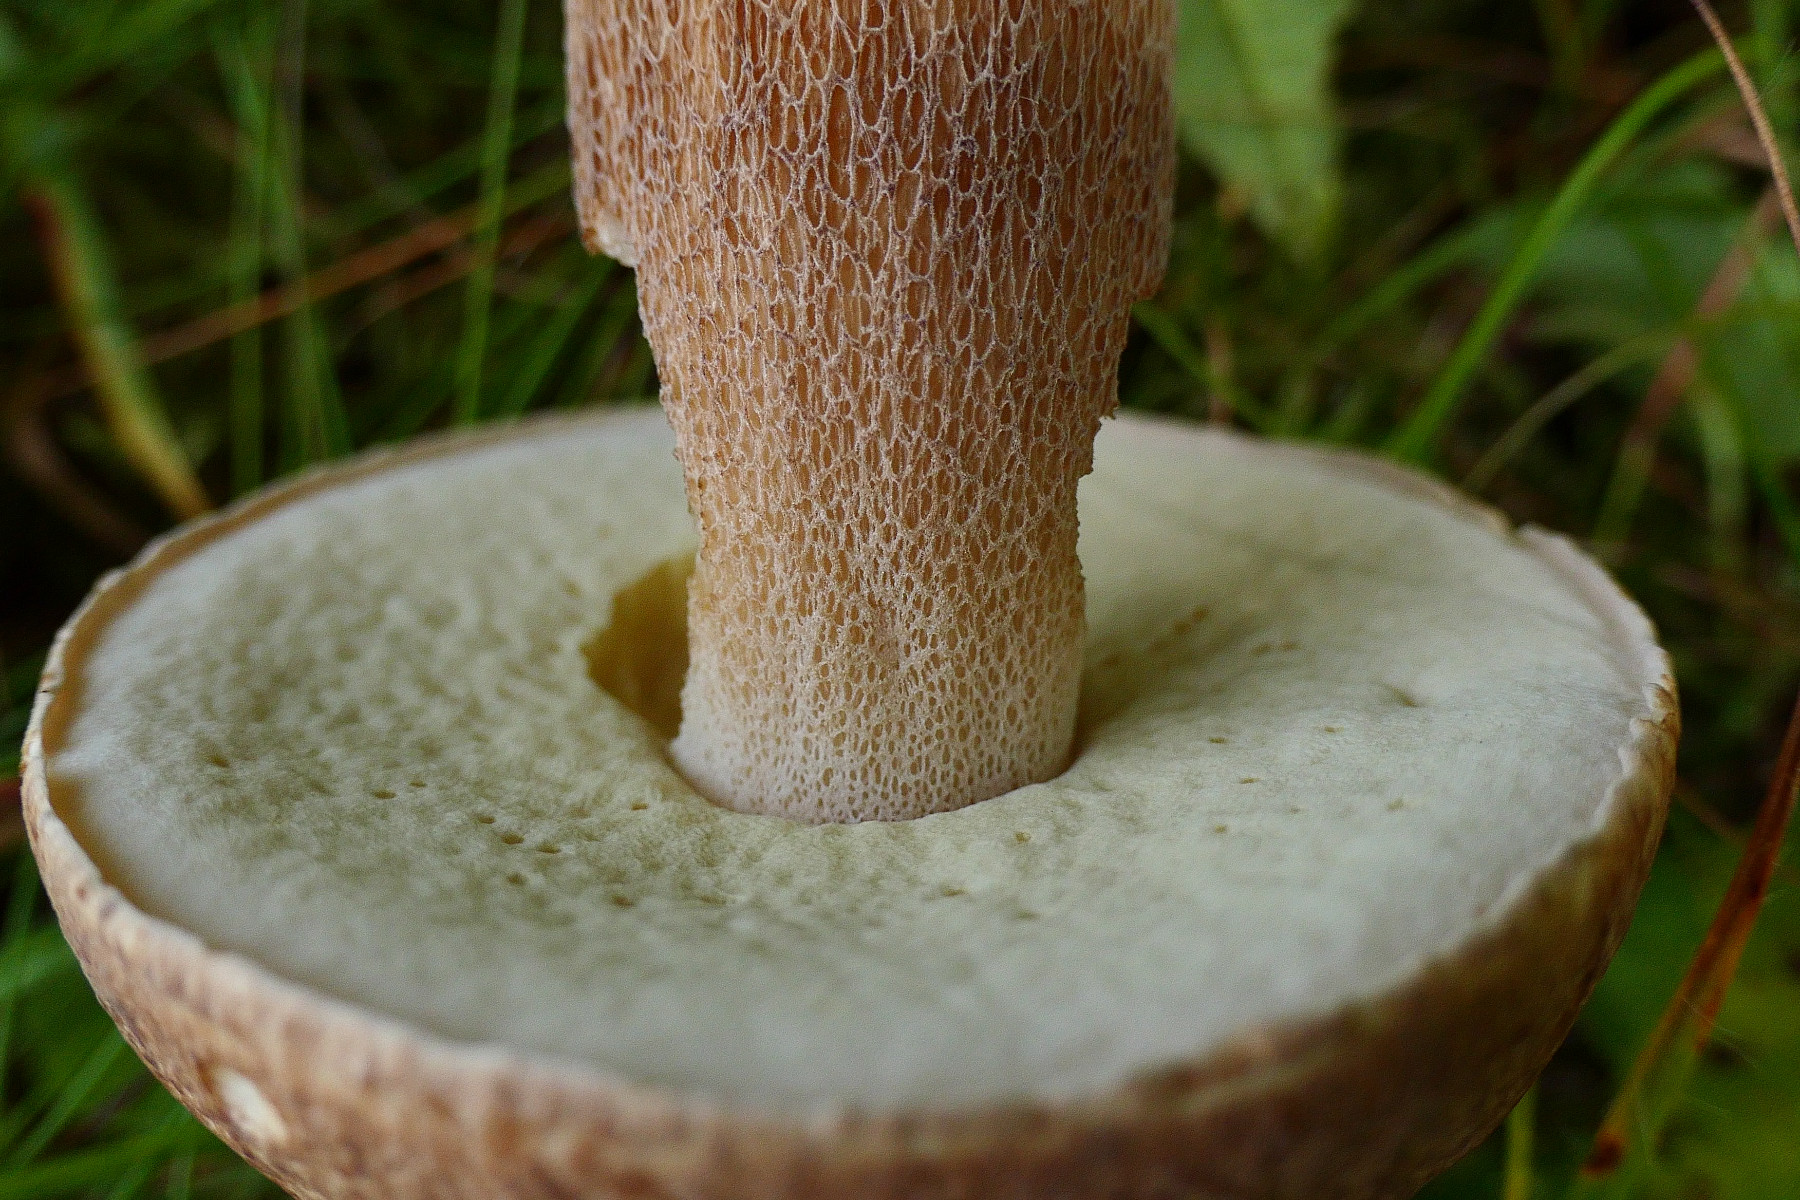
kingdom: Fungi
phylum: Basidiomycota
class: Agaricomycetes
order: Boletales
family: Boletaceae
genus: Boletus
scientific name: Boletus reticulatus
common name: sommer-rørhat
